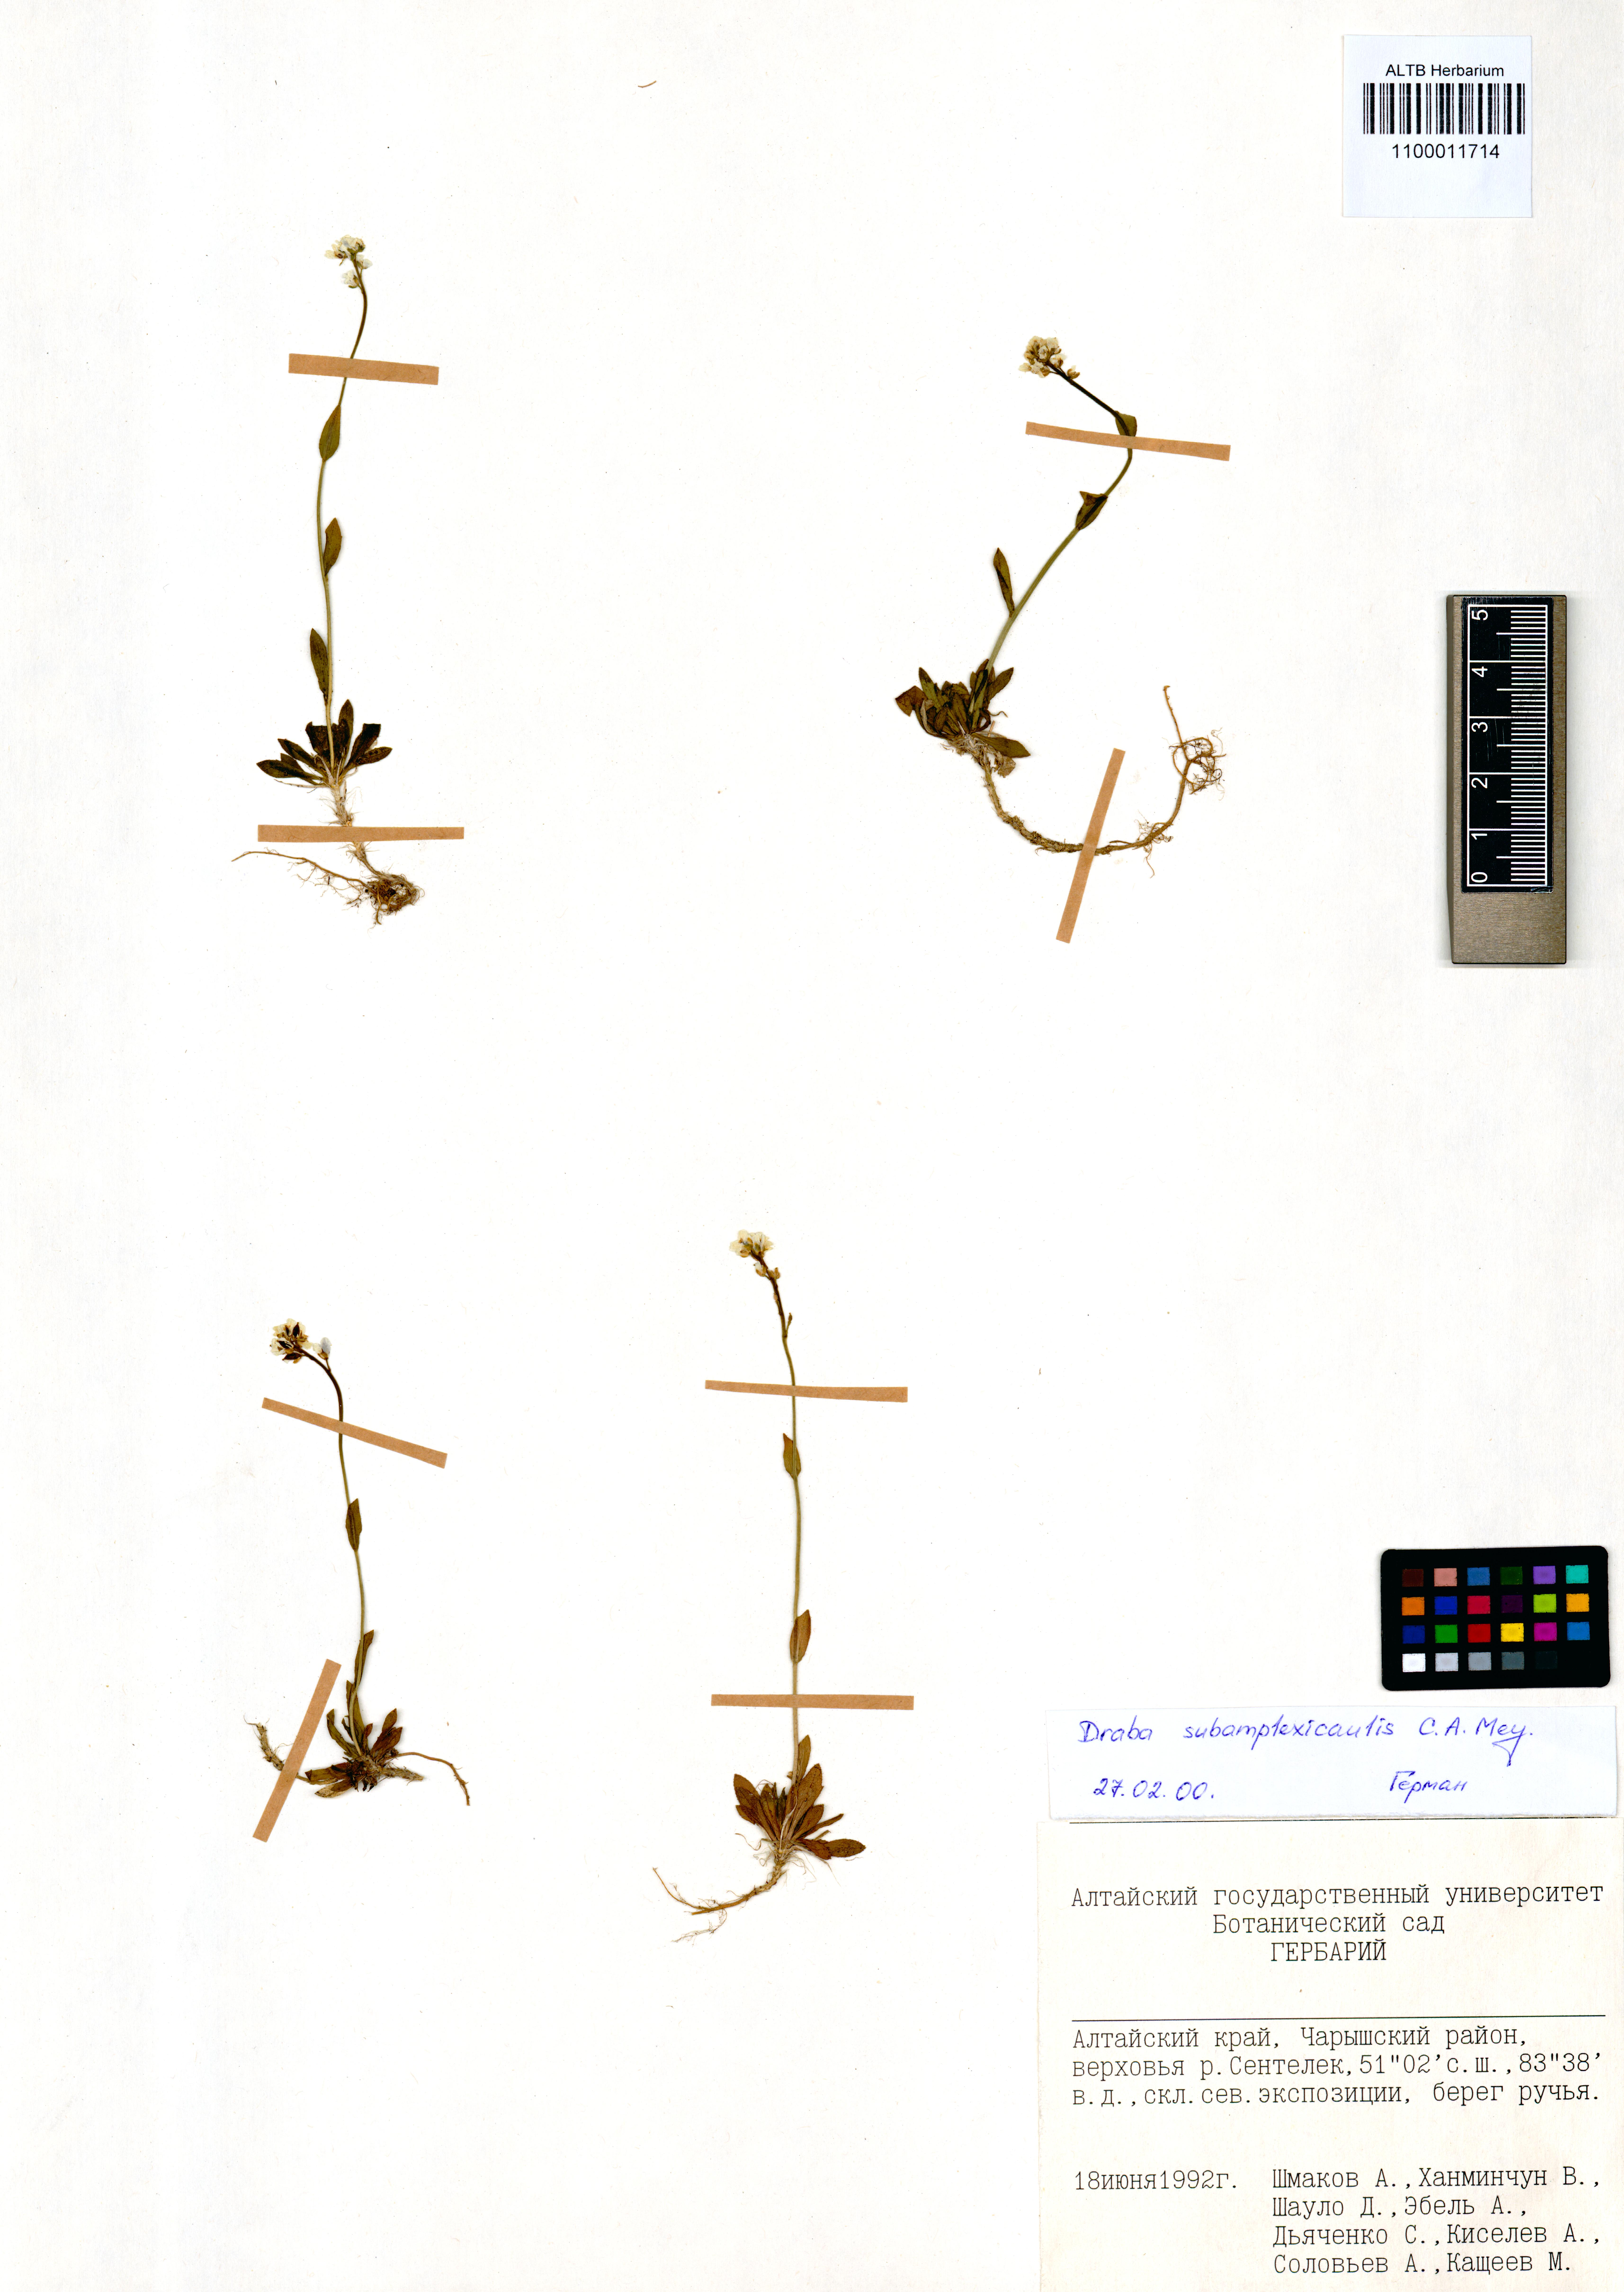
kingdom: Plantae
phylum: Tracheophyta
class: Magnoliopsida
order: Brassicales
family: Brassicaceae
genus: Draba
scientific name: Draba subamplexicaulis
